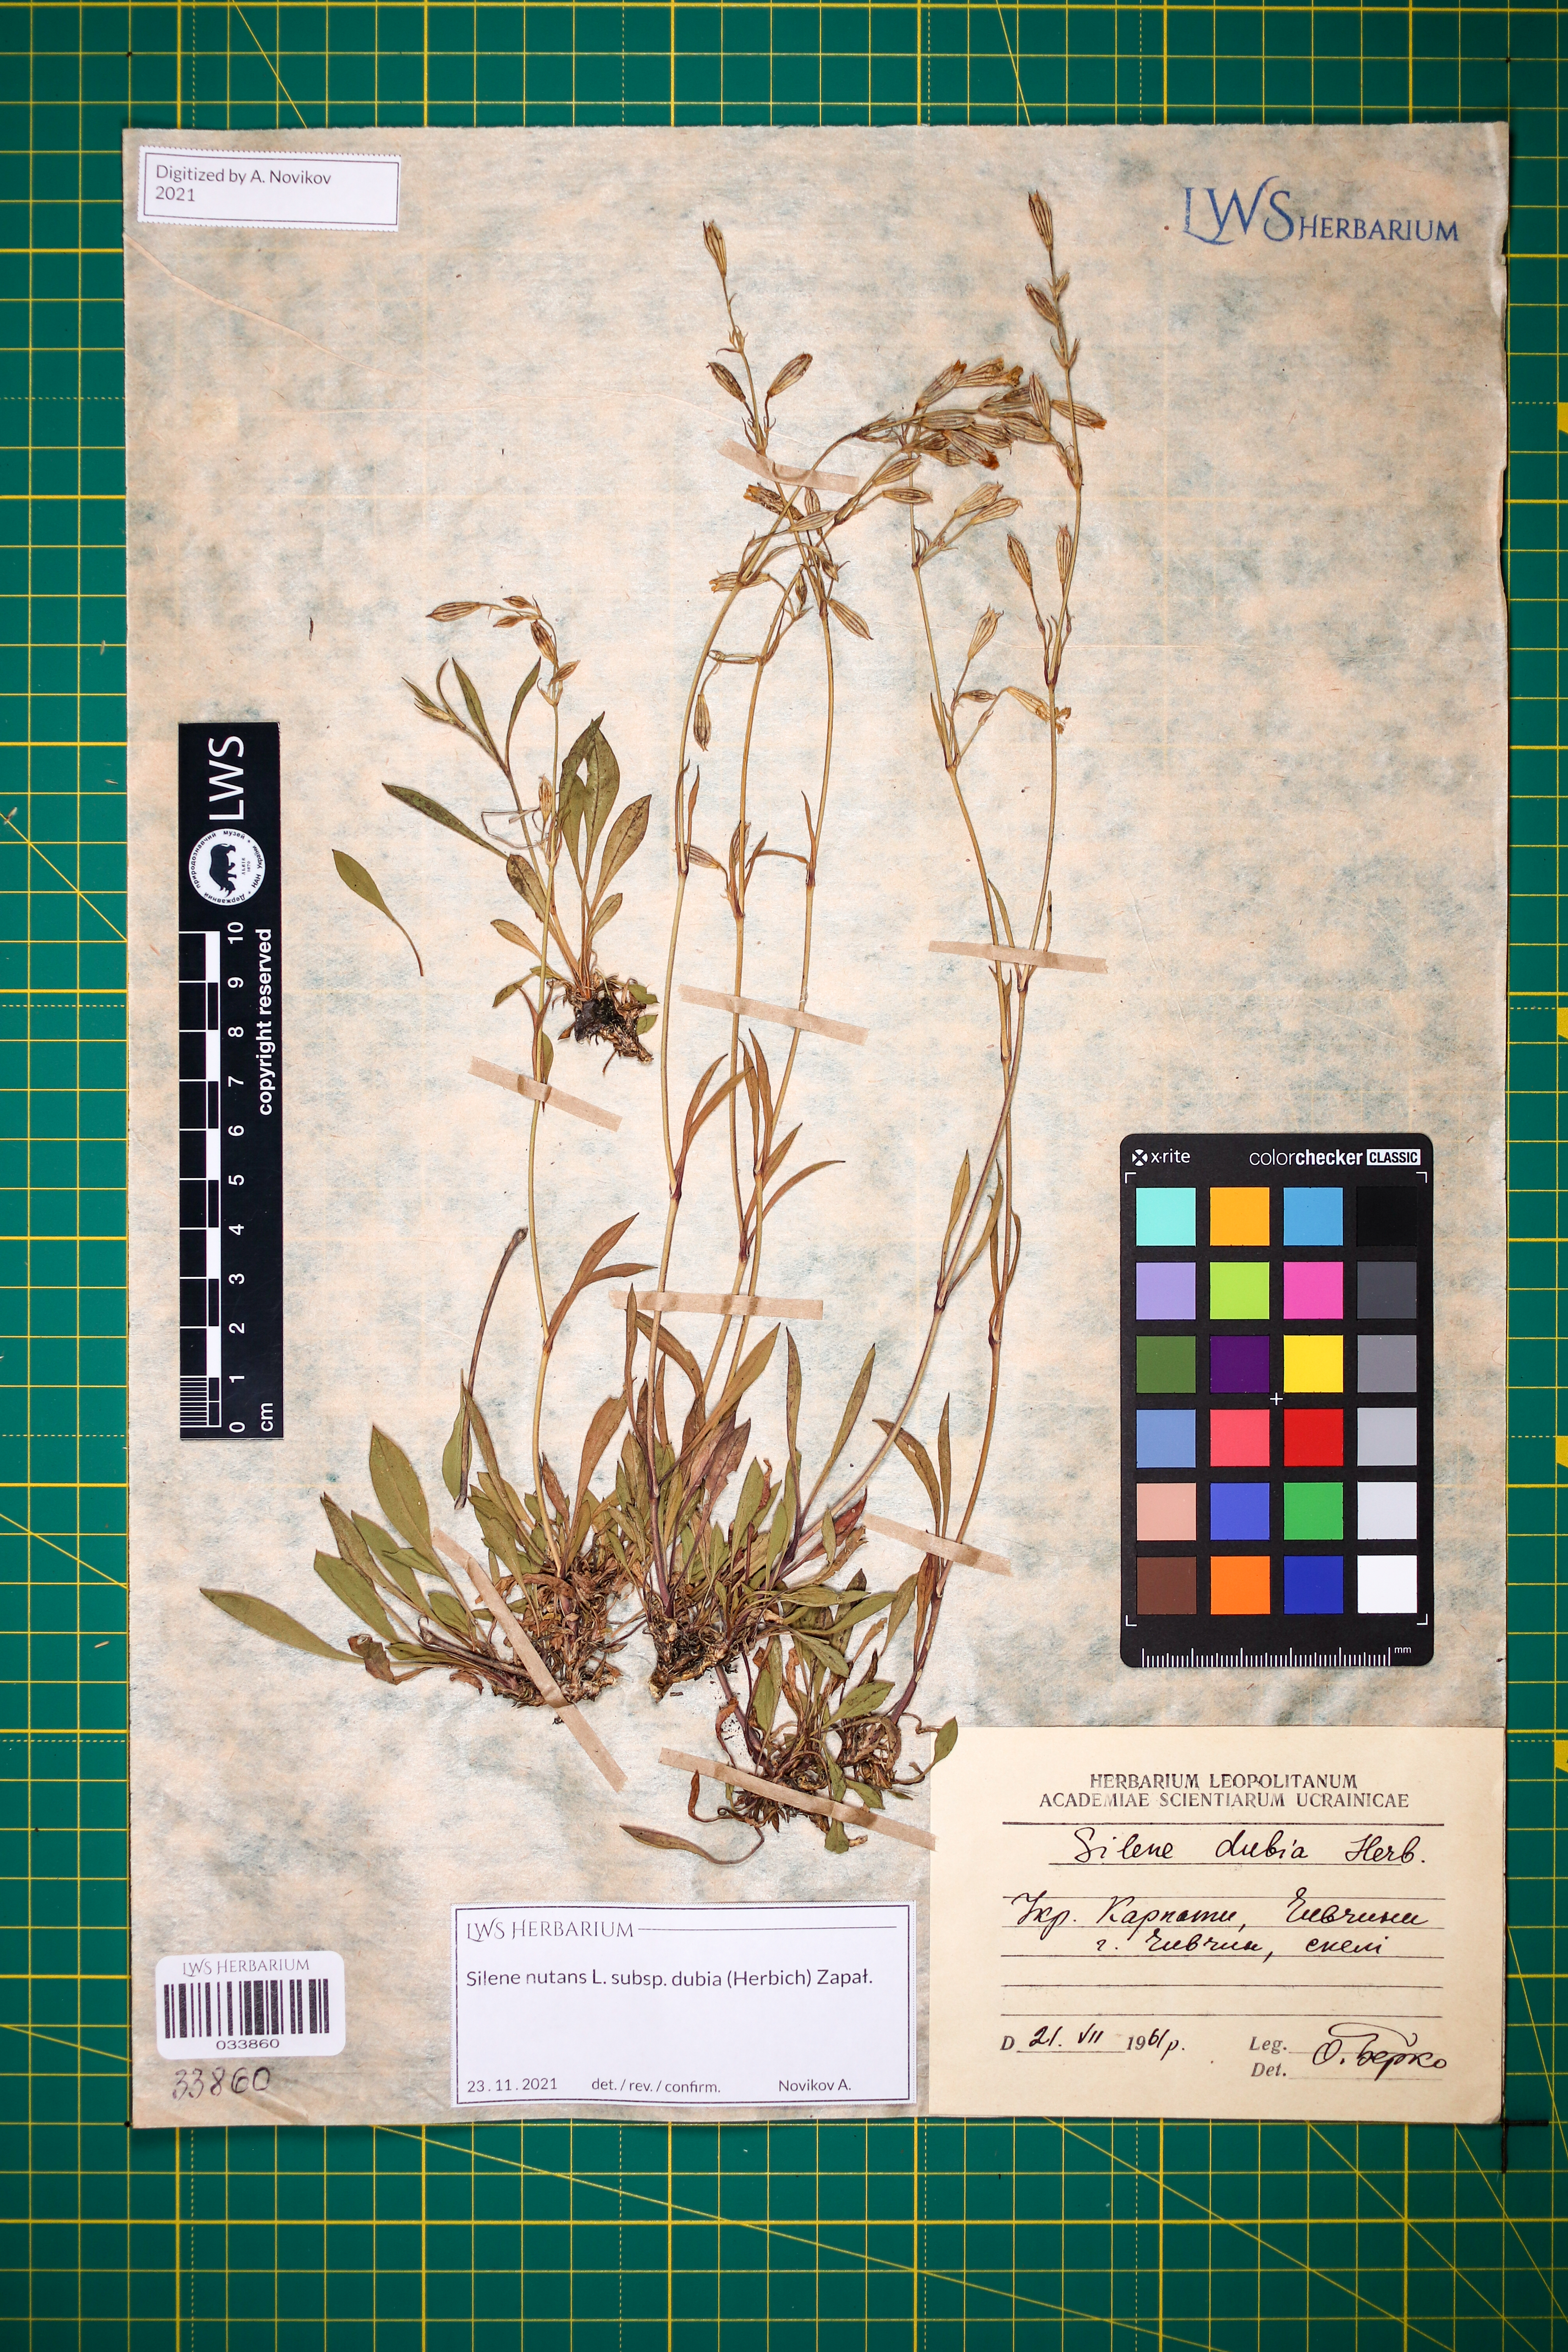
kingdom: Plantae
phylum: Tracheophyta
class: Magnoliopsida
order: Caryophyllales
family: Caryophyllaceae
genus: Silene
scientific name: Silene nutans
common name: Nottingham catchfly
